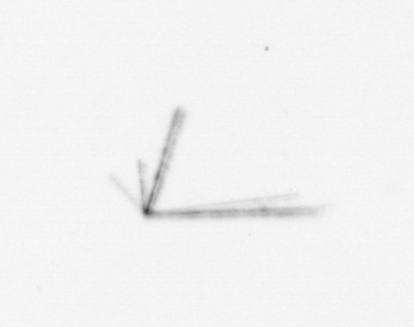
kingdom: Chromista
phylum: Ochrophyta
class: Bacillariophyceae
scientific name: Bacillariophyceae
